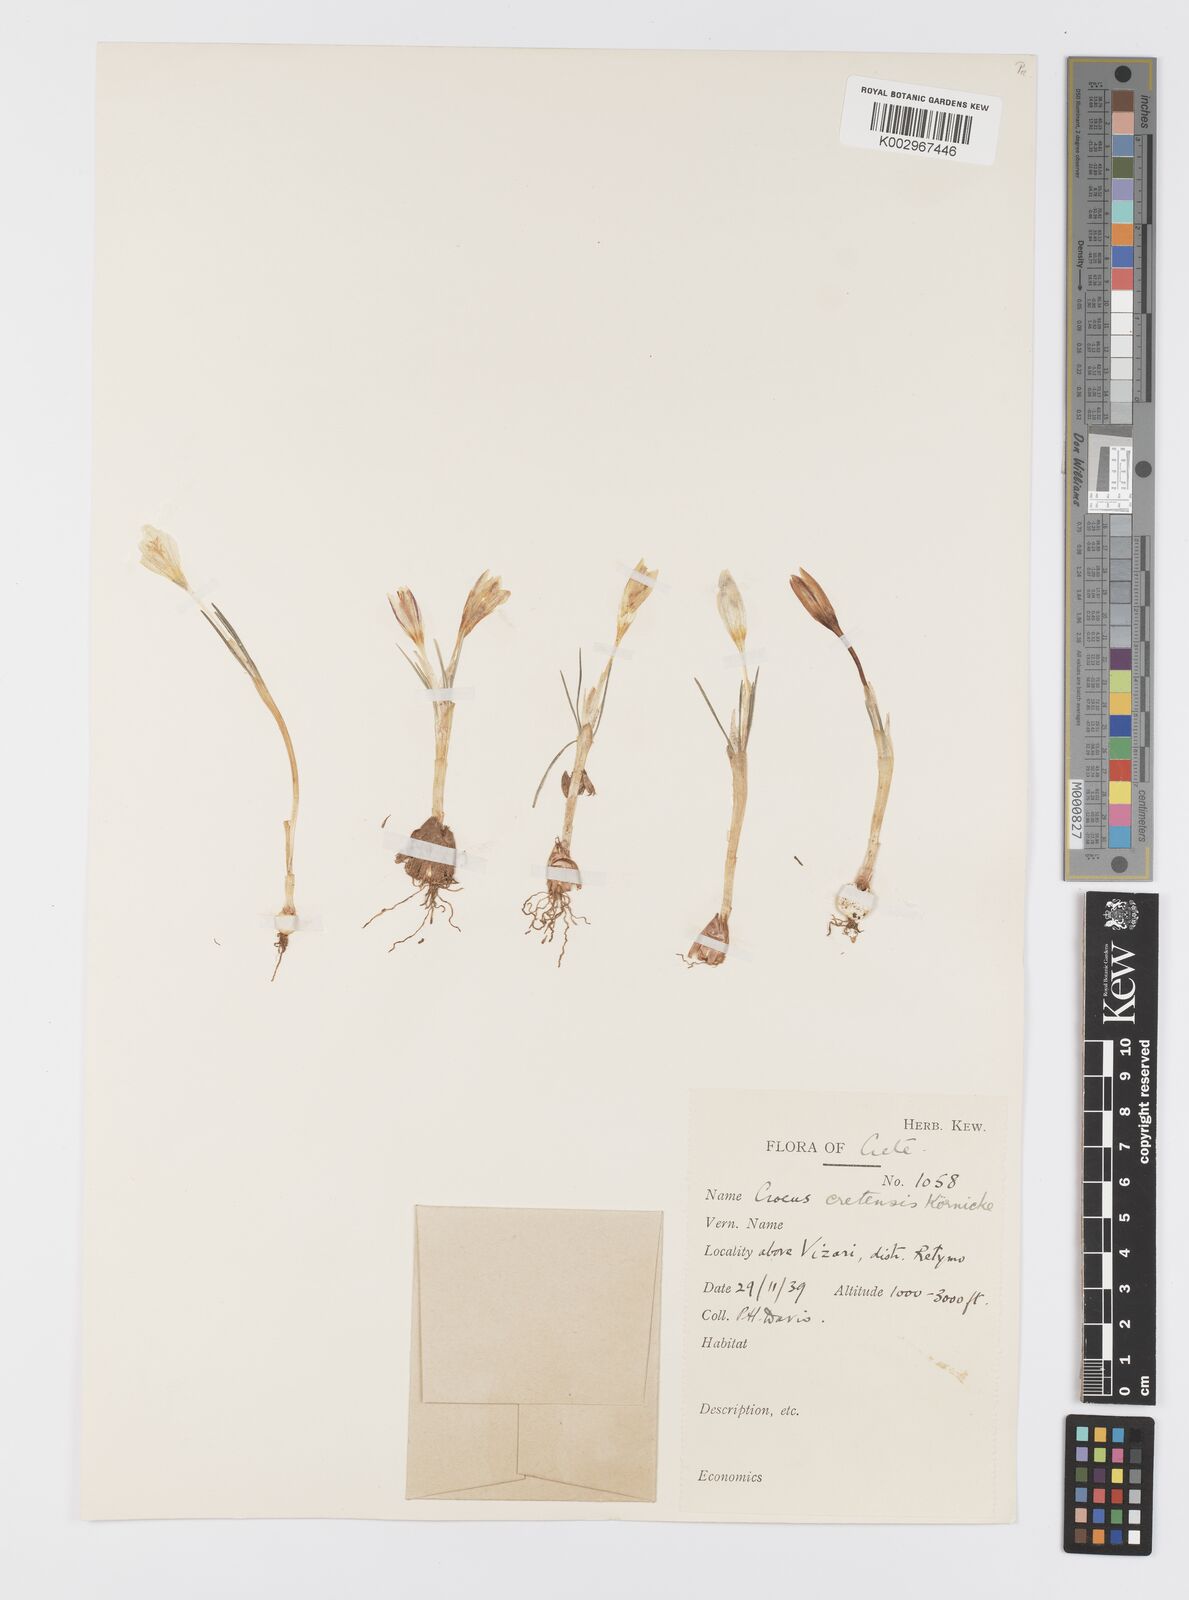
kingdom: Plantae
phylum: Tracheophyta
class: Liliopsida
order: Asparagales
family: Iridaceae
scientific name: Iridaceae
